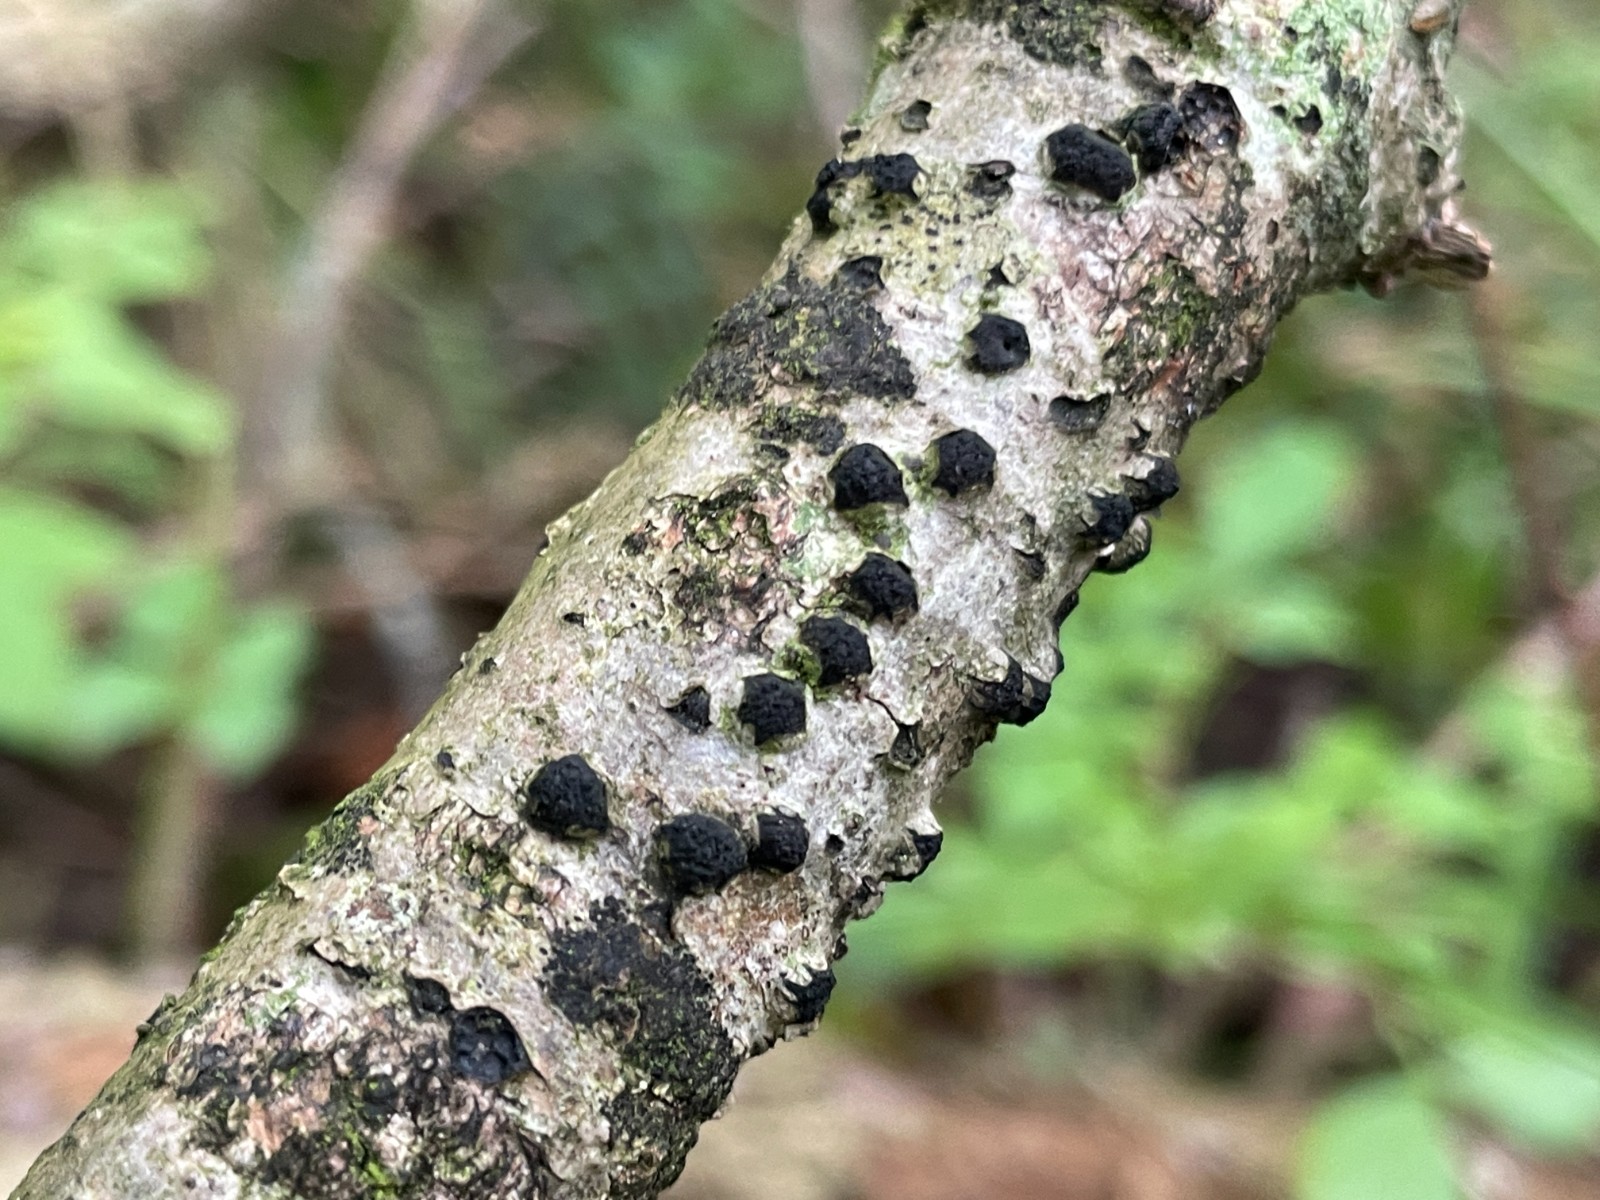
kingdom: Fungi
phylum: Ascomycota
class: Sordariomycetes
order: Xylariales
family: Diatrypaceae
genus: Diatrypella
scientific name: Diatrypella quercina
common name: ege-kulskorpe
